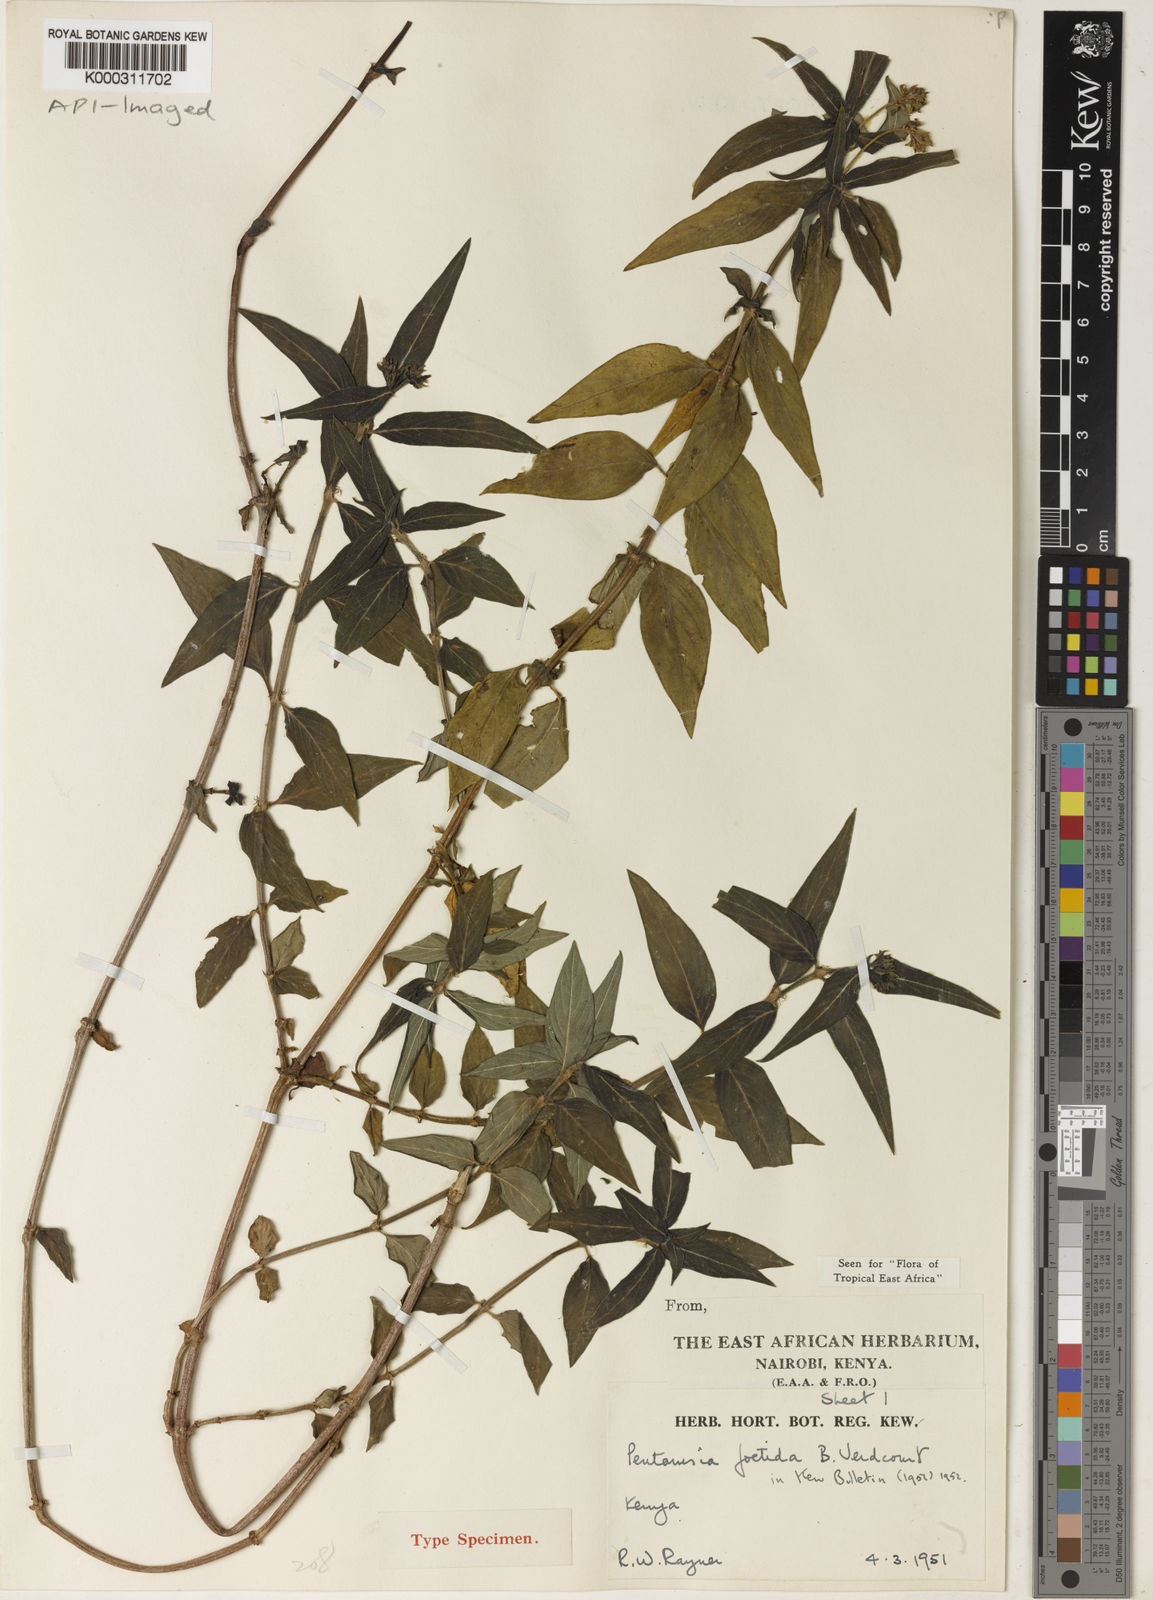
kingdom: Plantae
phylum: Tracheophyta
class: Magnoliopsida
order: Gentianales
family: Rubiaceae
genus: Pentanisia
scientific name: Pentanisia foetida
